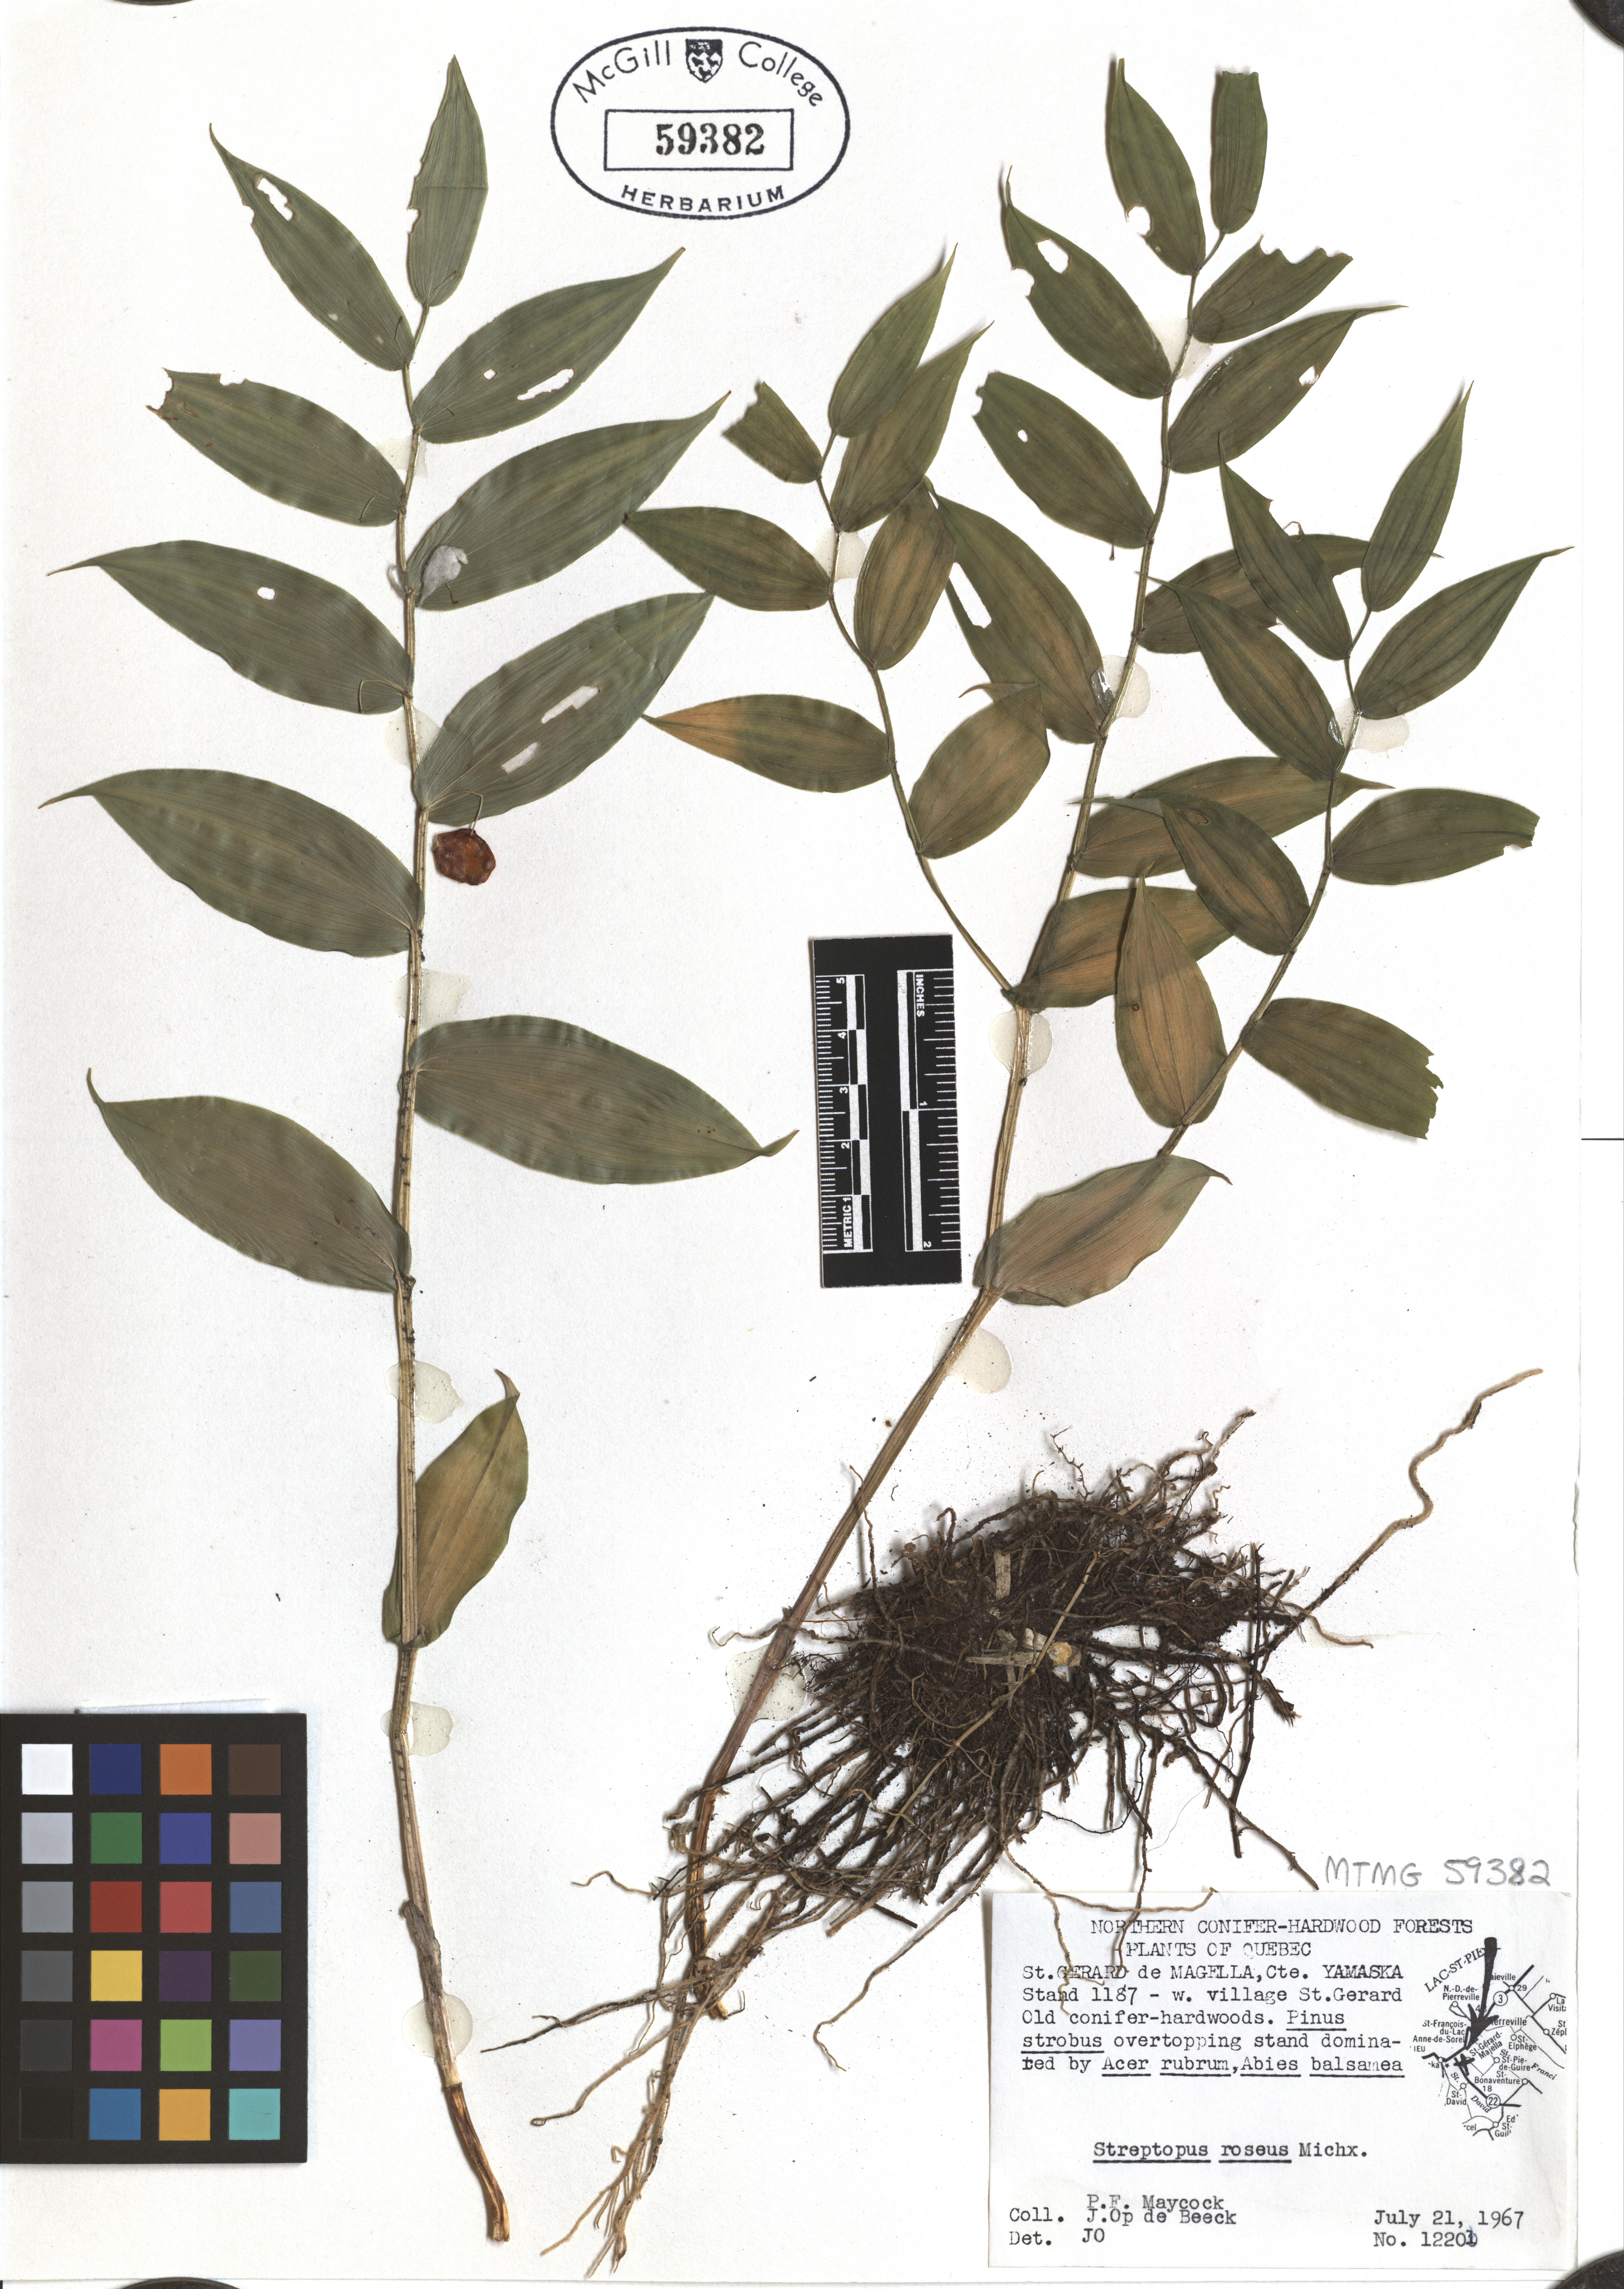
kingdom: Plantae
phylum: Tracheophyta
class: Liliopsida
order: Liliales
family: Liliaceae
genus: Streptopus
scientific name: Streptopus lanceolatus
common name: Rose mandarin
